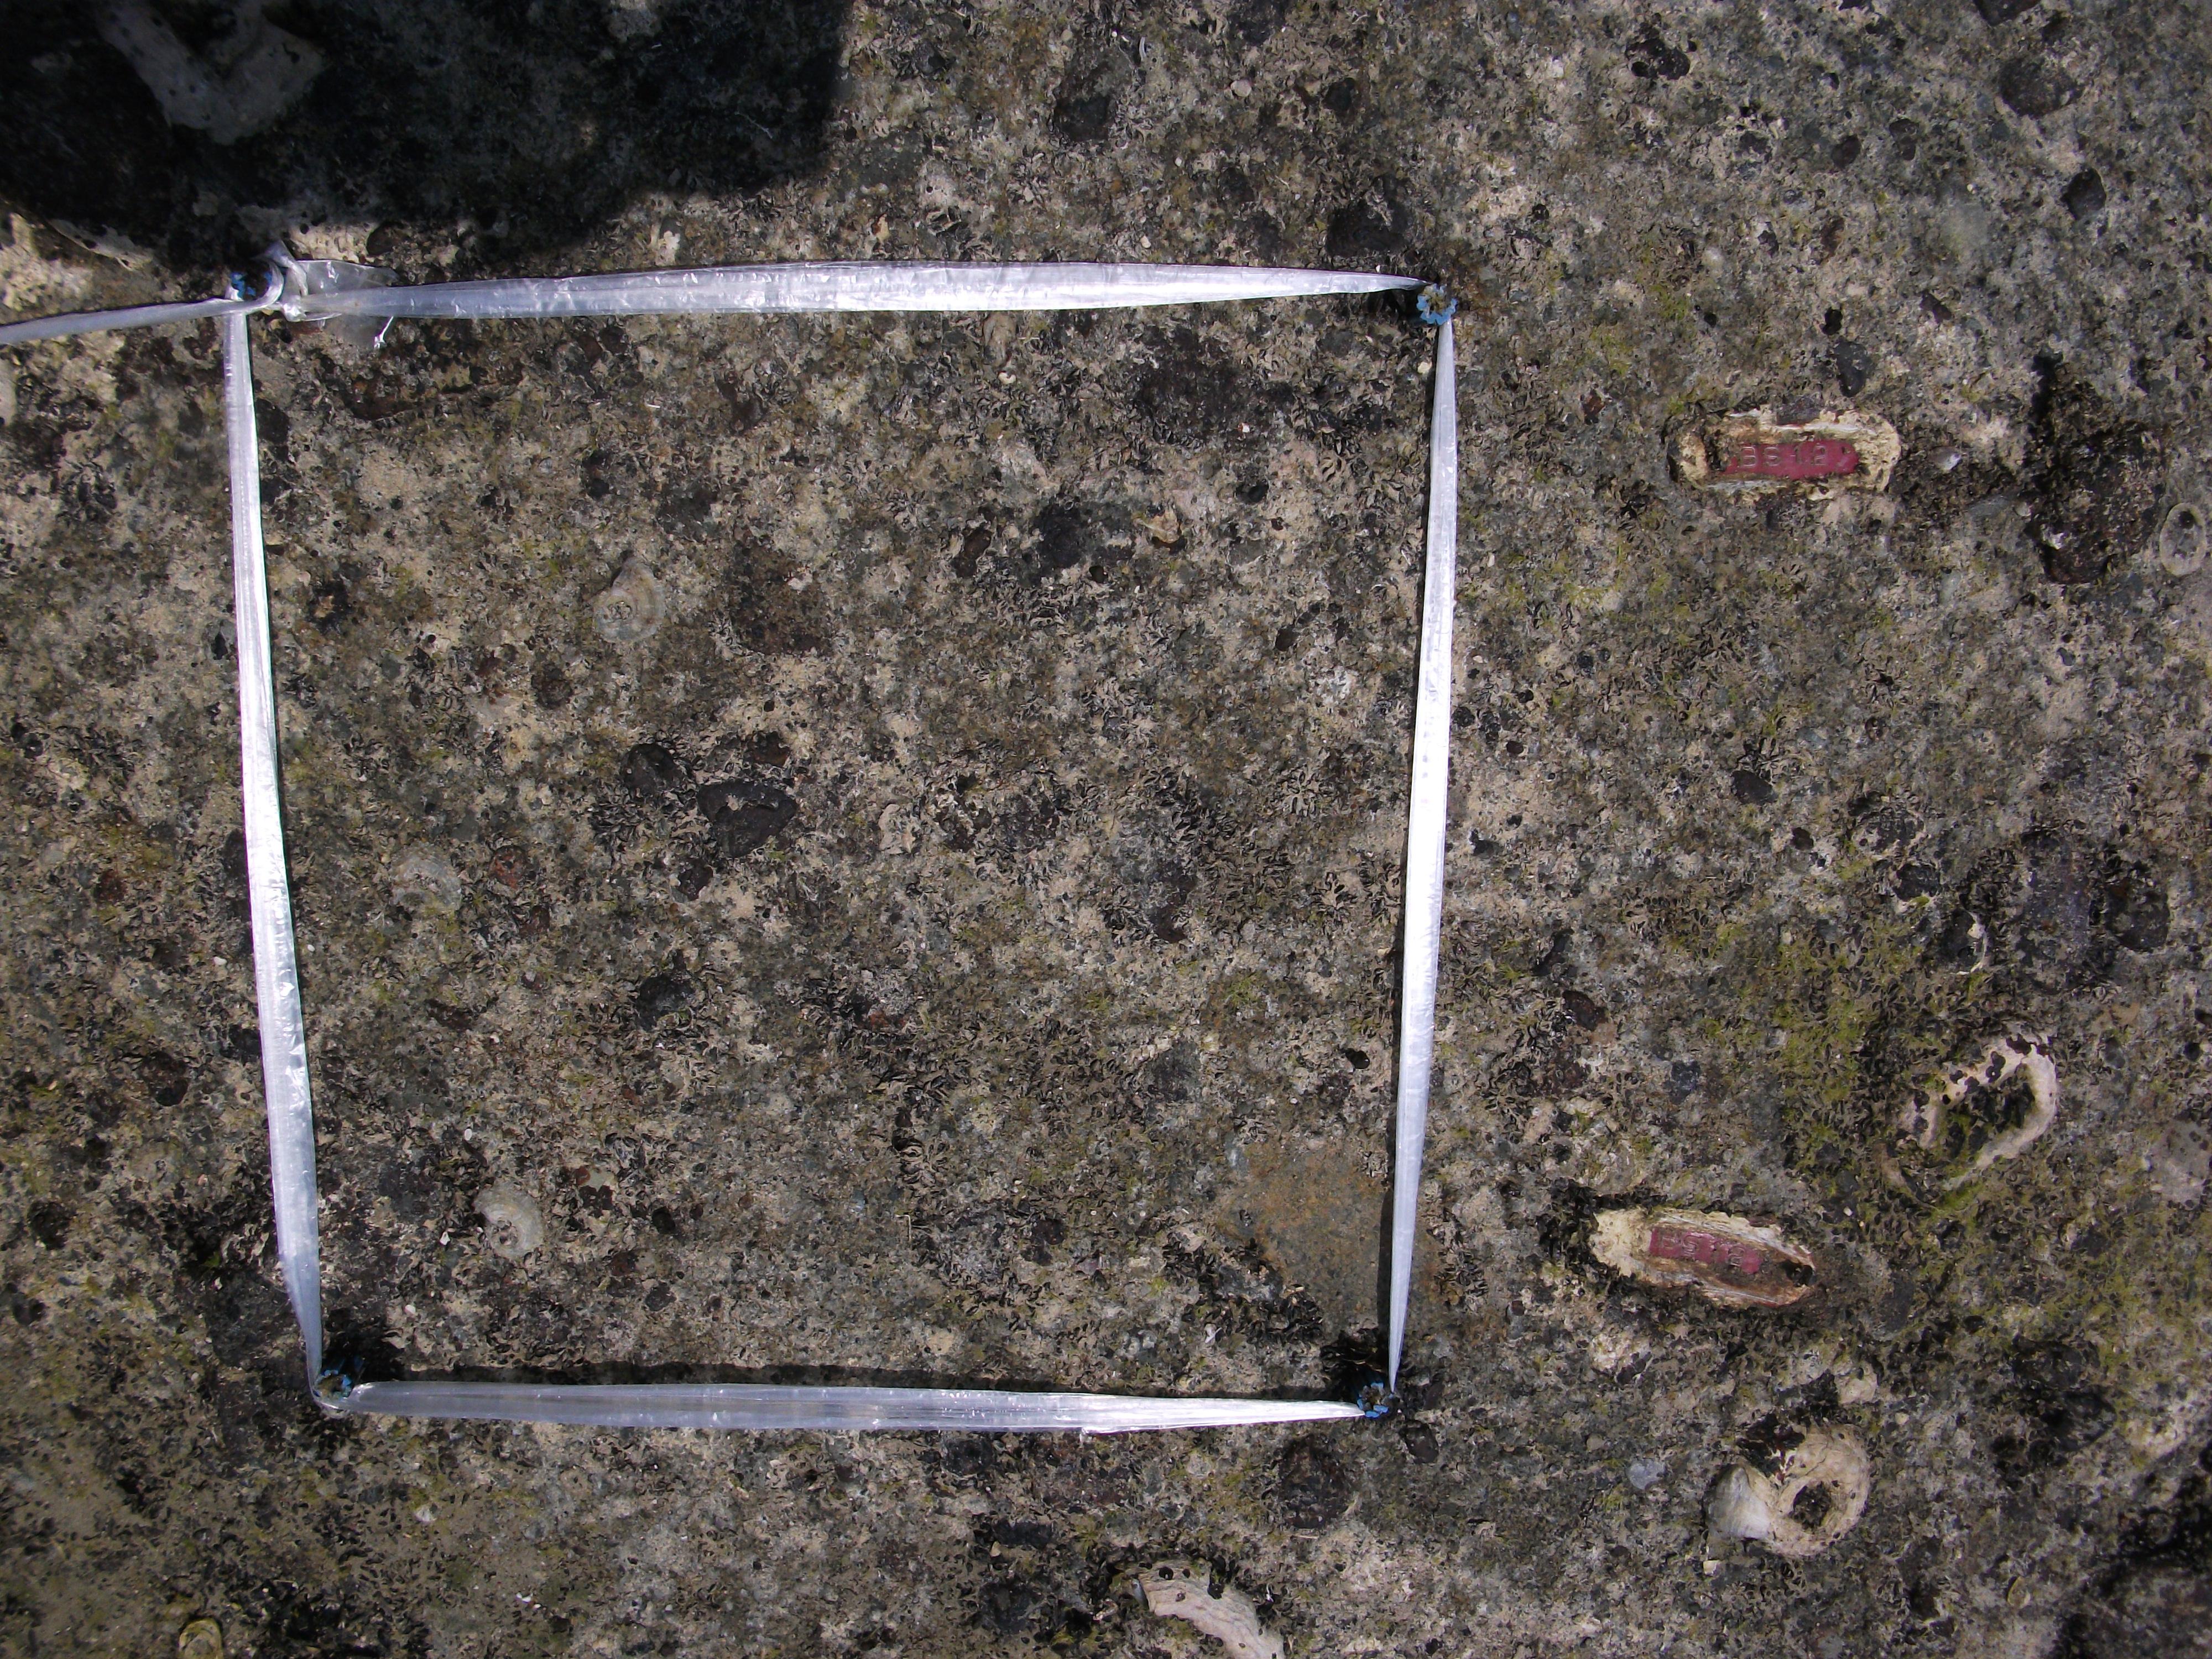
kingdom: Animalia
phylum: Mollusca
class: Bivalvia
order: Mytilida
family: Mytilidae
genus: Brachidontes
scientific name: Brachidontes mutabilis
